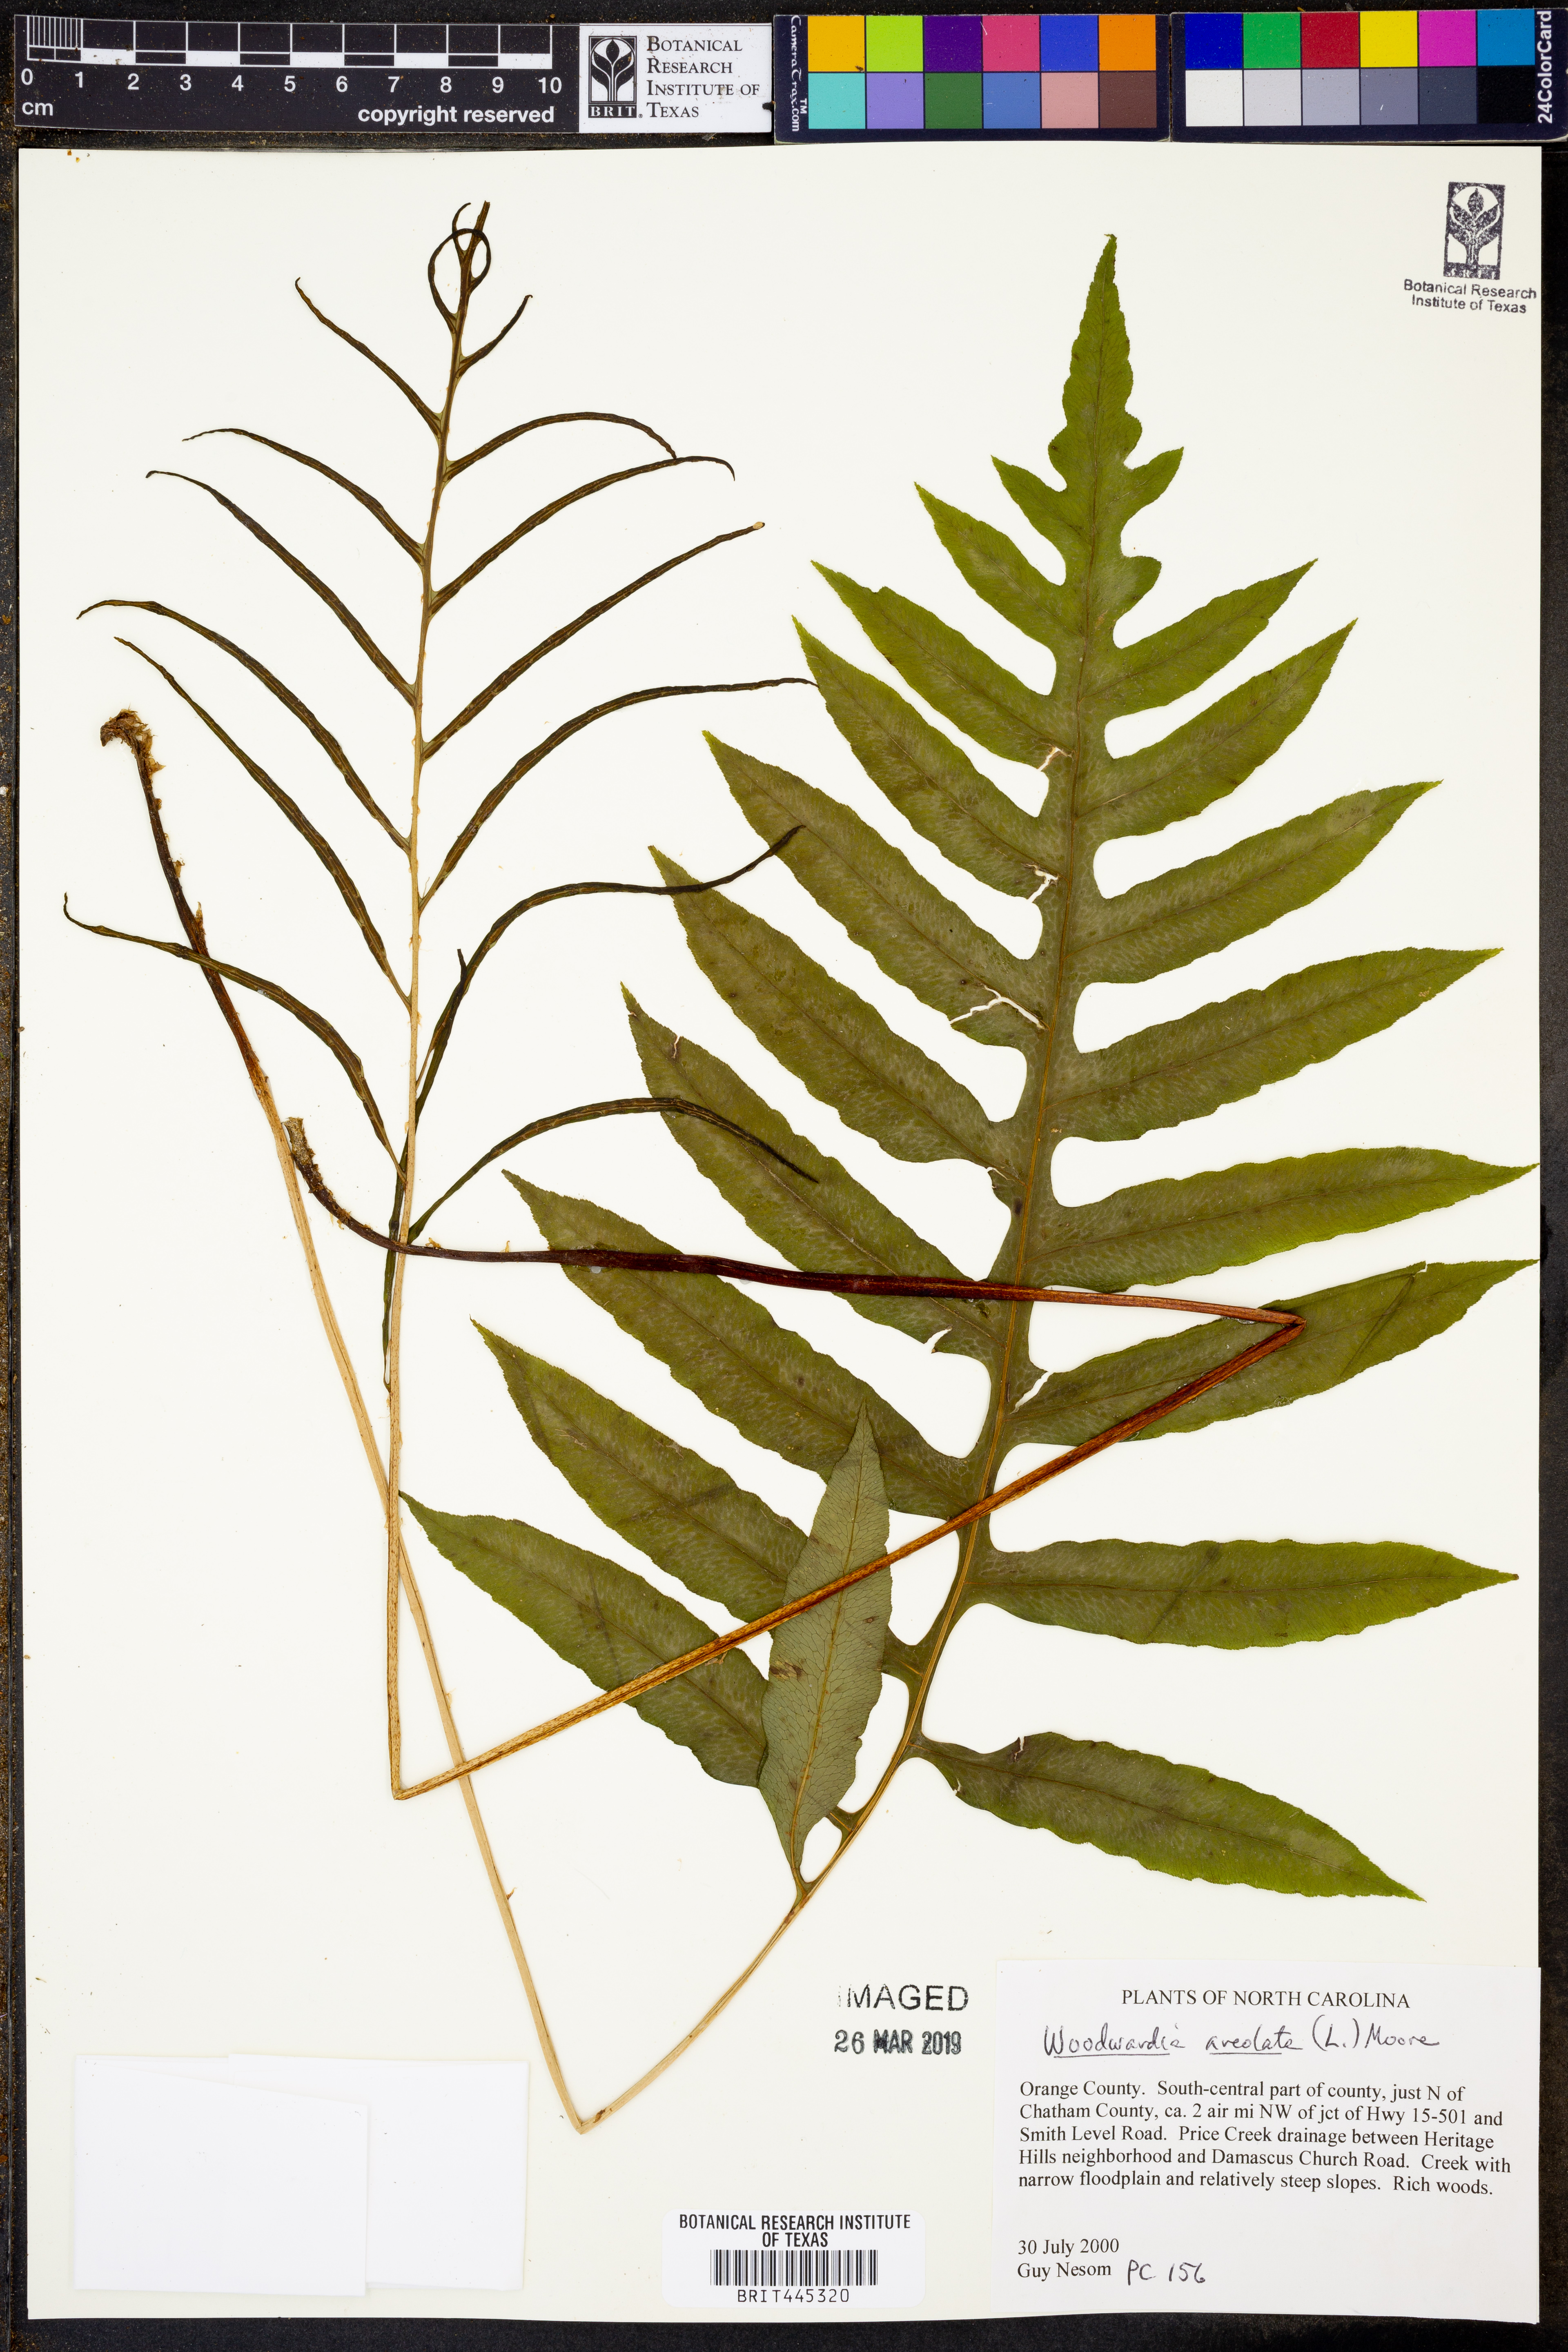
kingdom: Plantae
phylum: Tracheophyta
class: Polypodiopsida
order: Polypodiales
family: Blechnaceae
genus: Lorinseria
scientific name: Lorinseria areolata
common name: Dwarf chain fern
